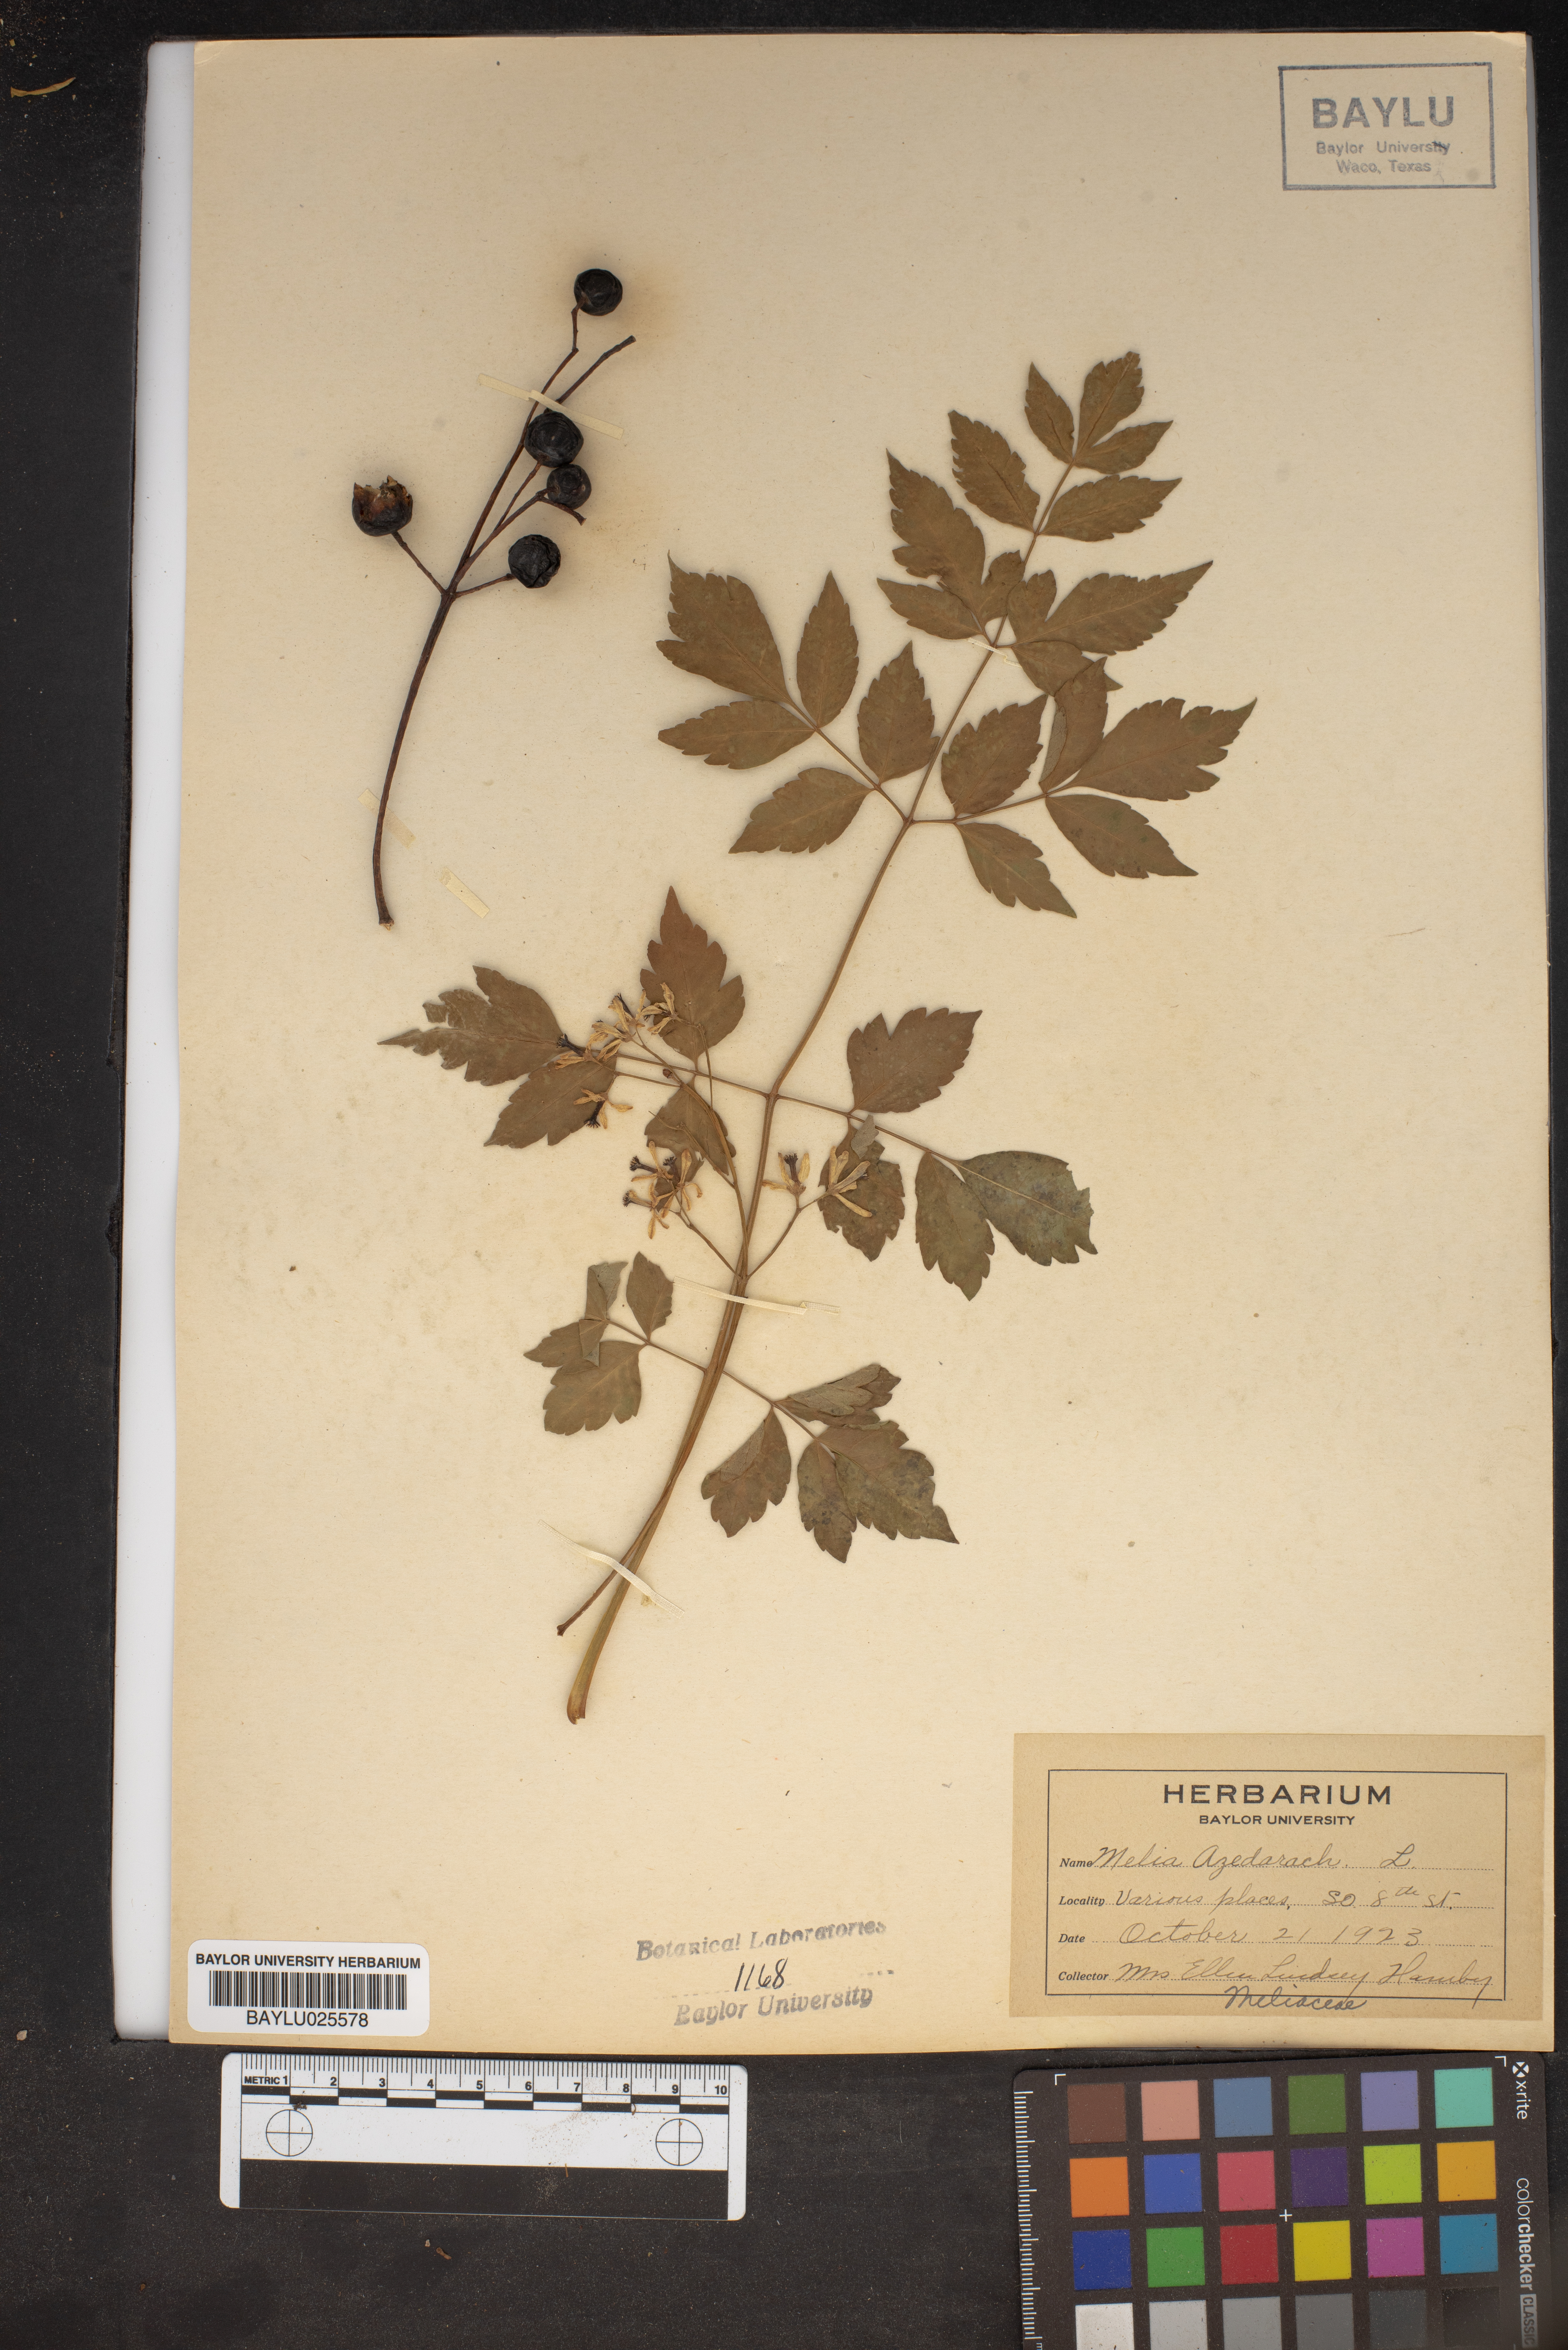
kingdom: Plantae
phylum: Tracheophyta
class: Magnoliopsida
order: Sapindales
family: Meliaceae
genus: Melia
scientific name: Melia azedarach
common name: Chinaberrytree
